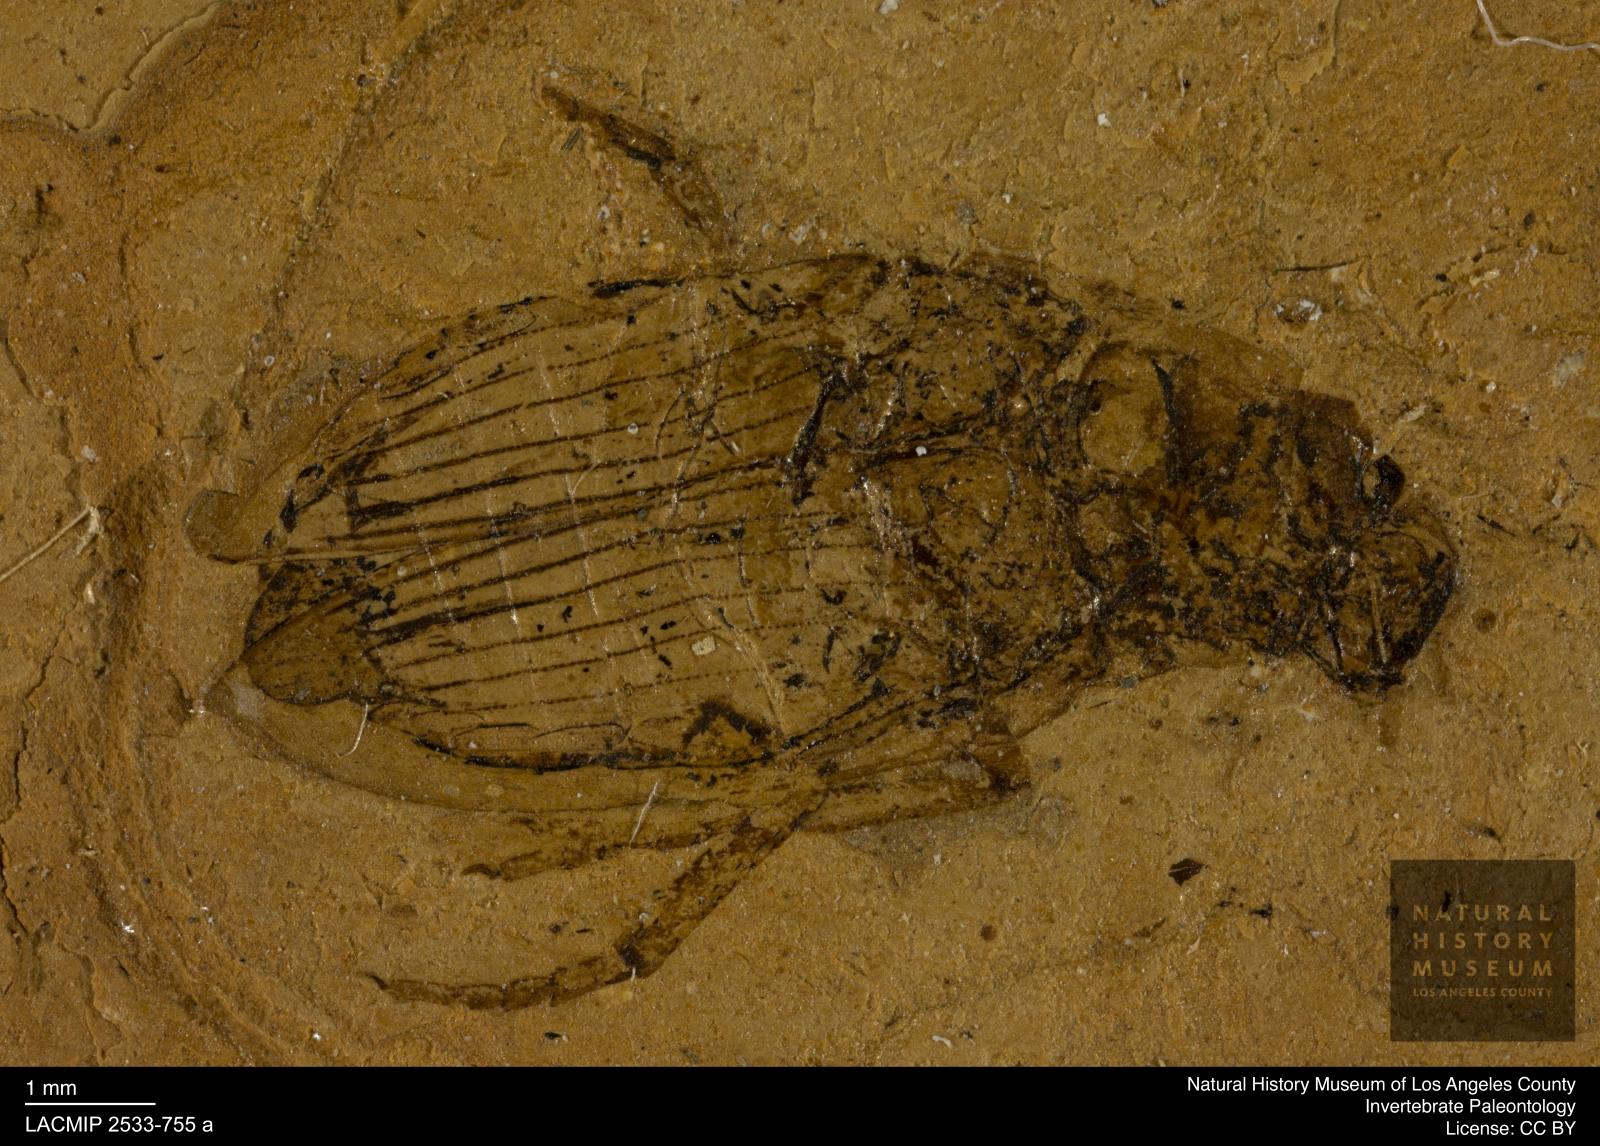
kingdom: Animalia
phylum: Arthropoda
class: Insecta
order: Coleoptera
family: Hydrophilidae
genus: Berosus
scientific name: Berosus morticinus
